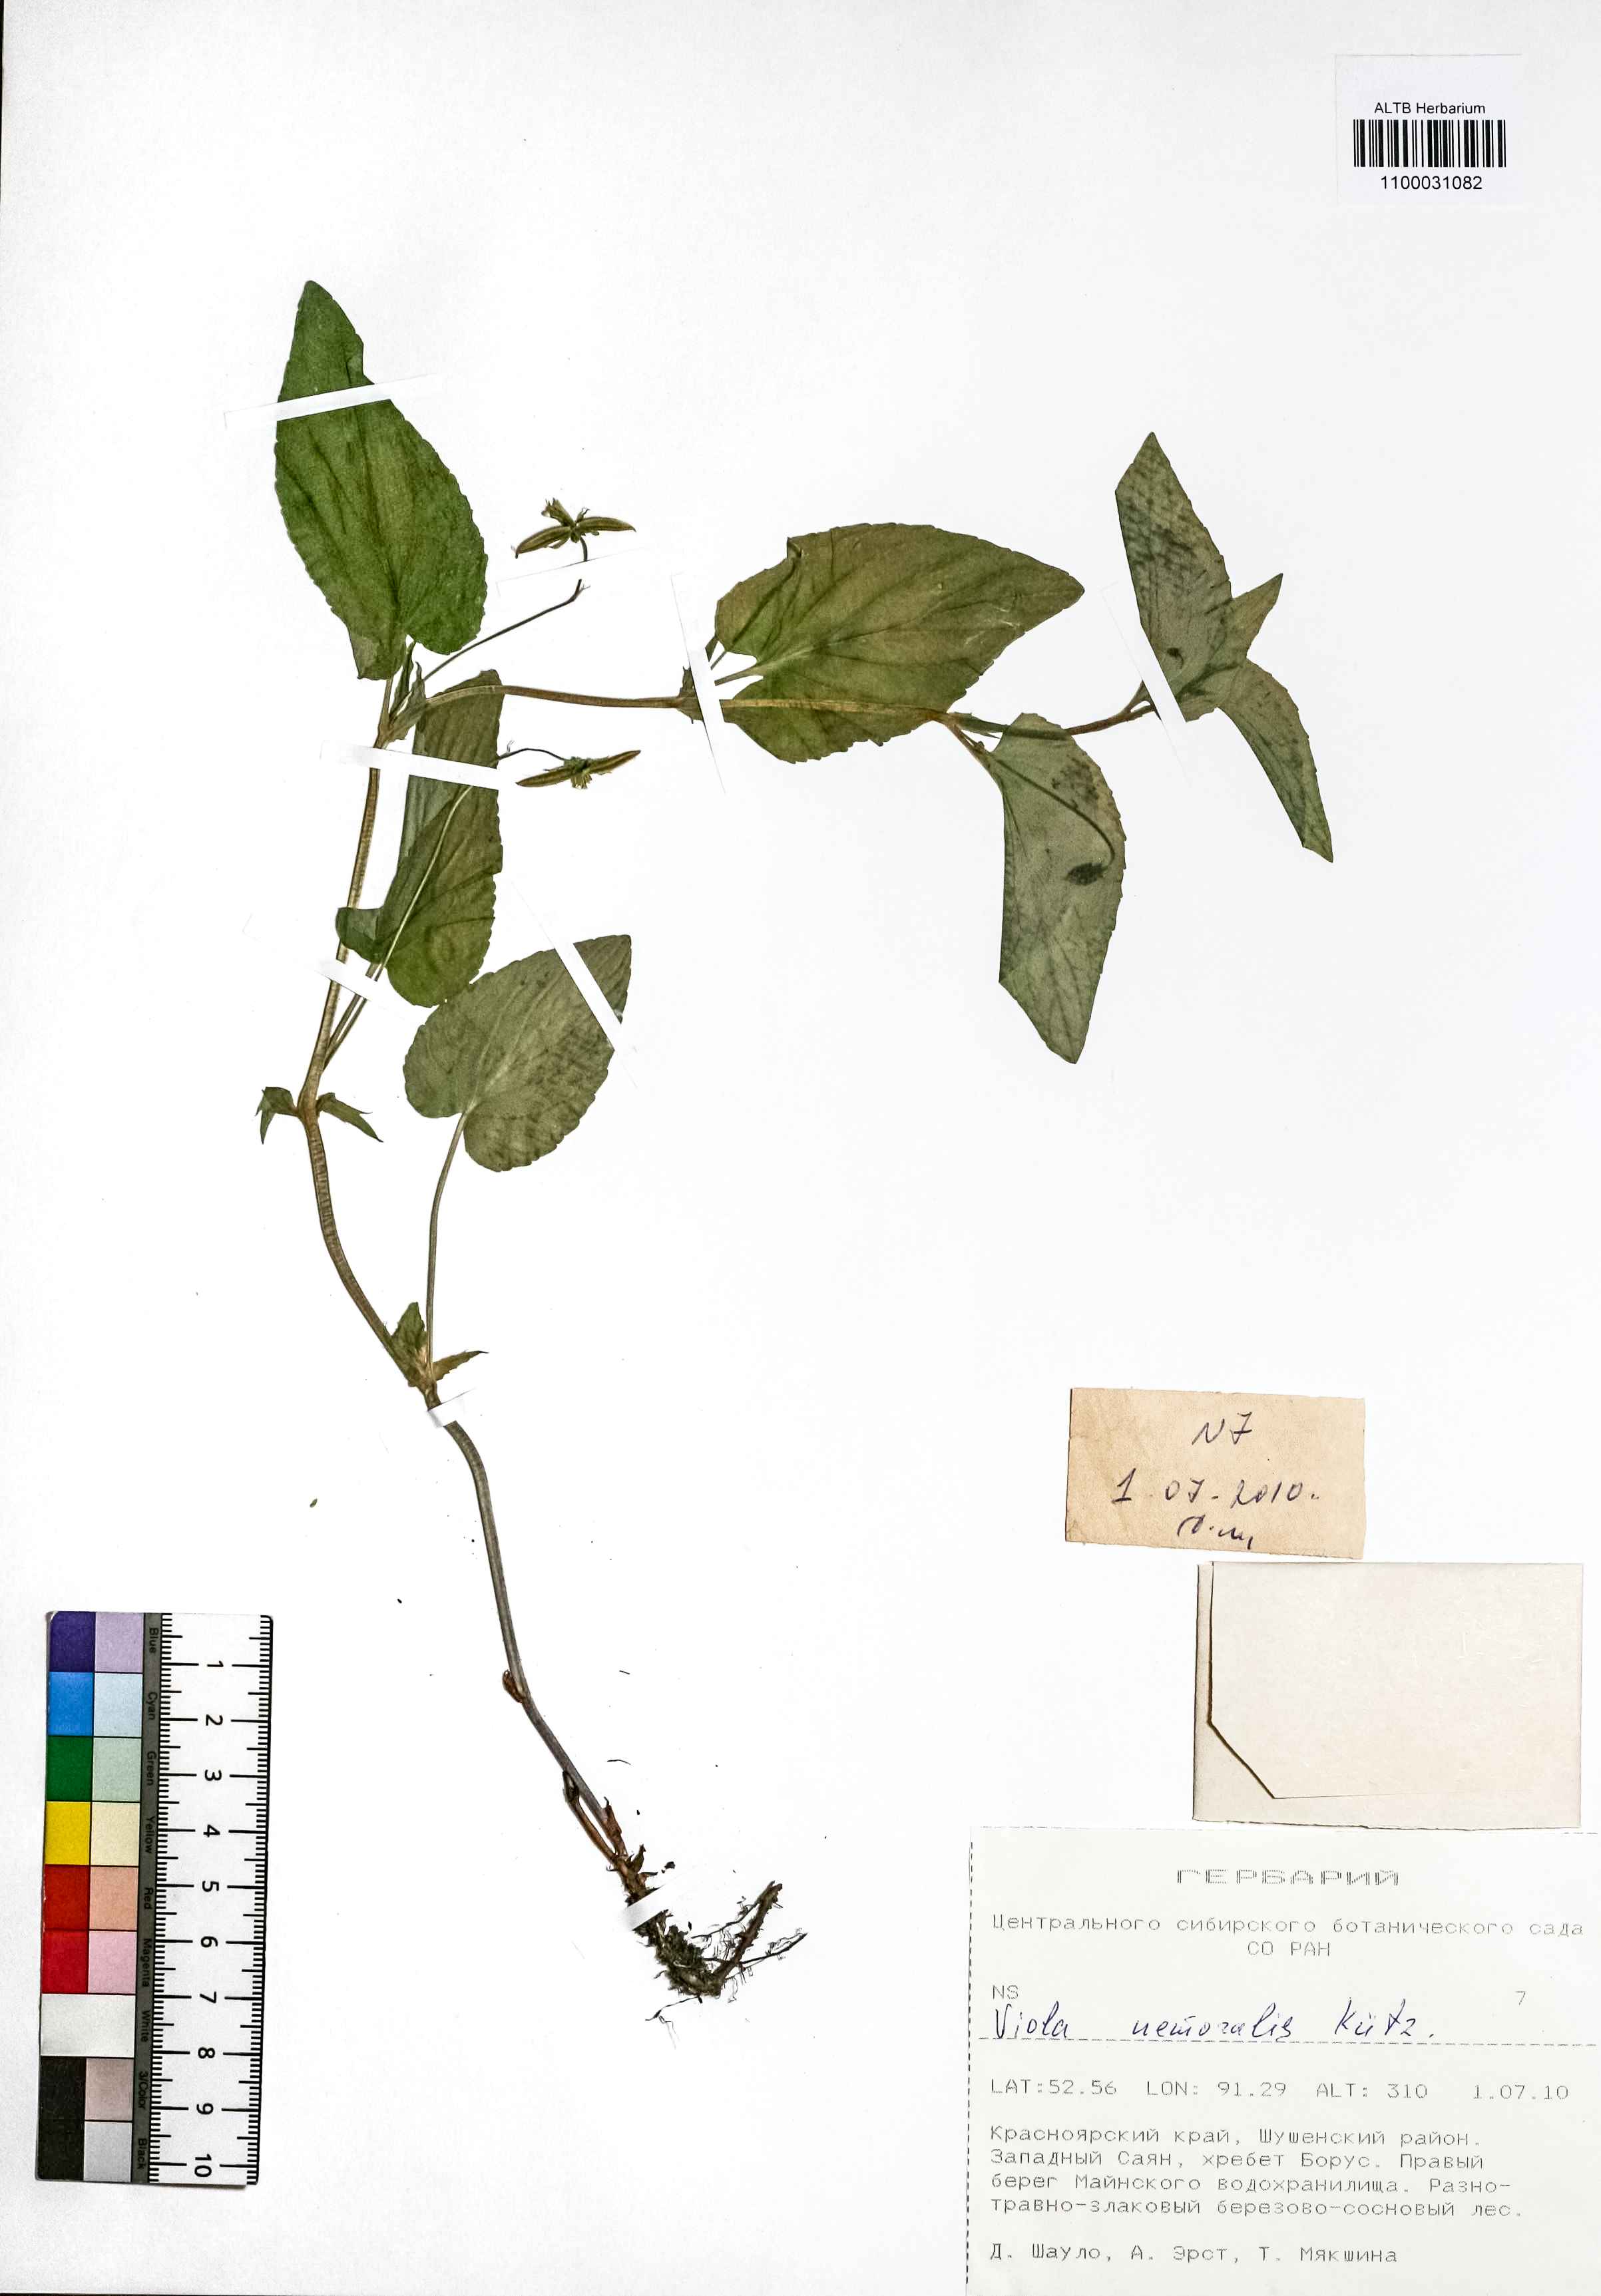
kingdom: Plantae
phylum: Tracheophyta
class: Magnoliopsida
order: Malpighiales
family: Violaceae
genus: Viola
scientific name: Viola ruppii
